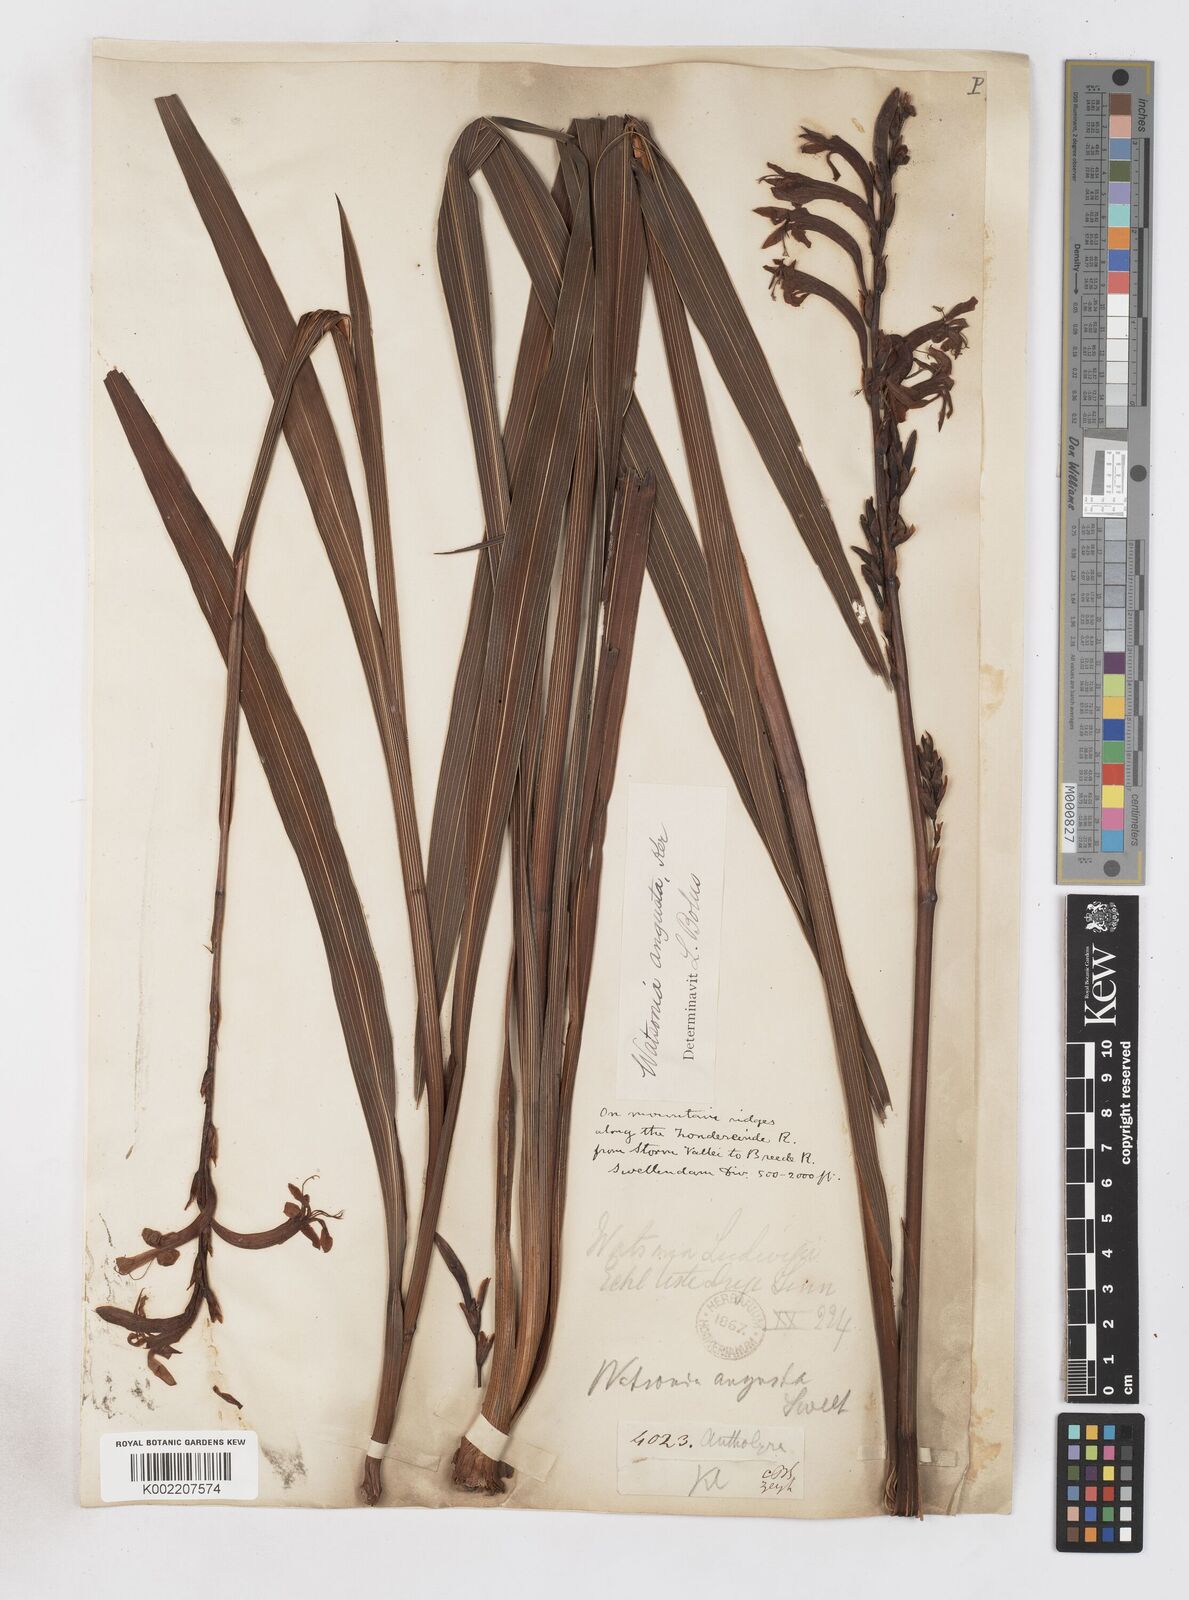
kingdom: Plantae
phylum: Tracheophyta
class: Liliopsida
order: Asparagales
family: Iridaceae
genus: Watsonia
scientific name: Watsonia
